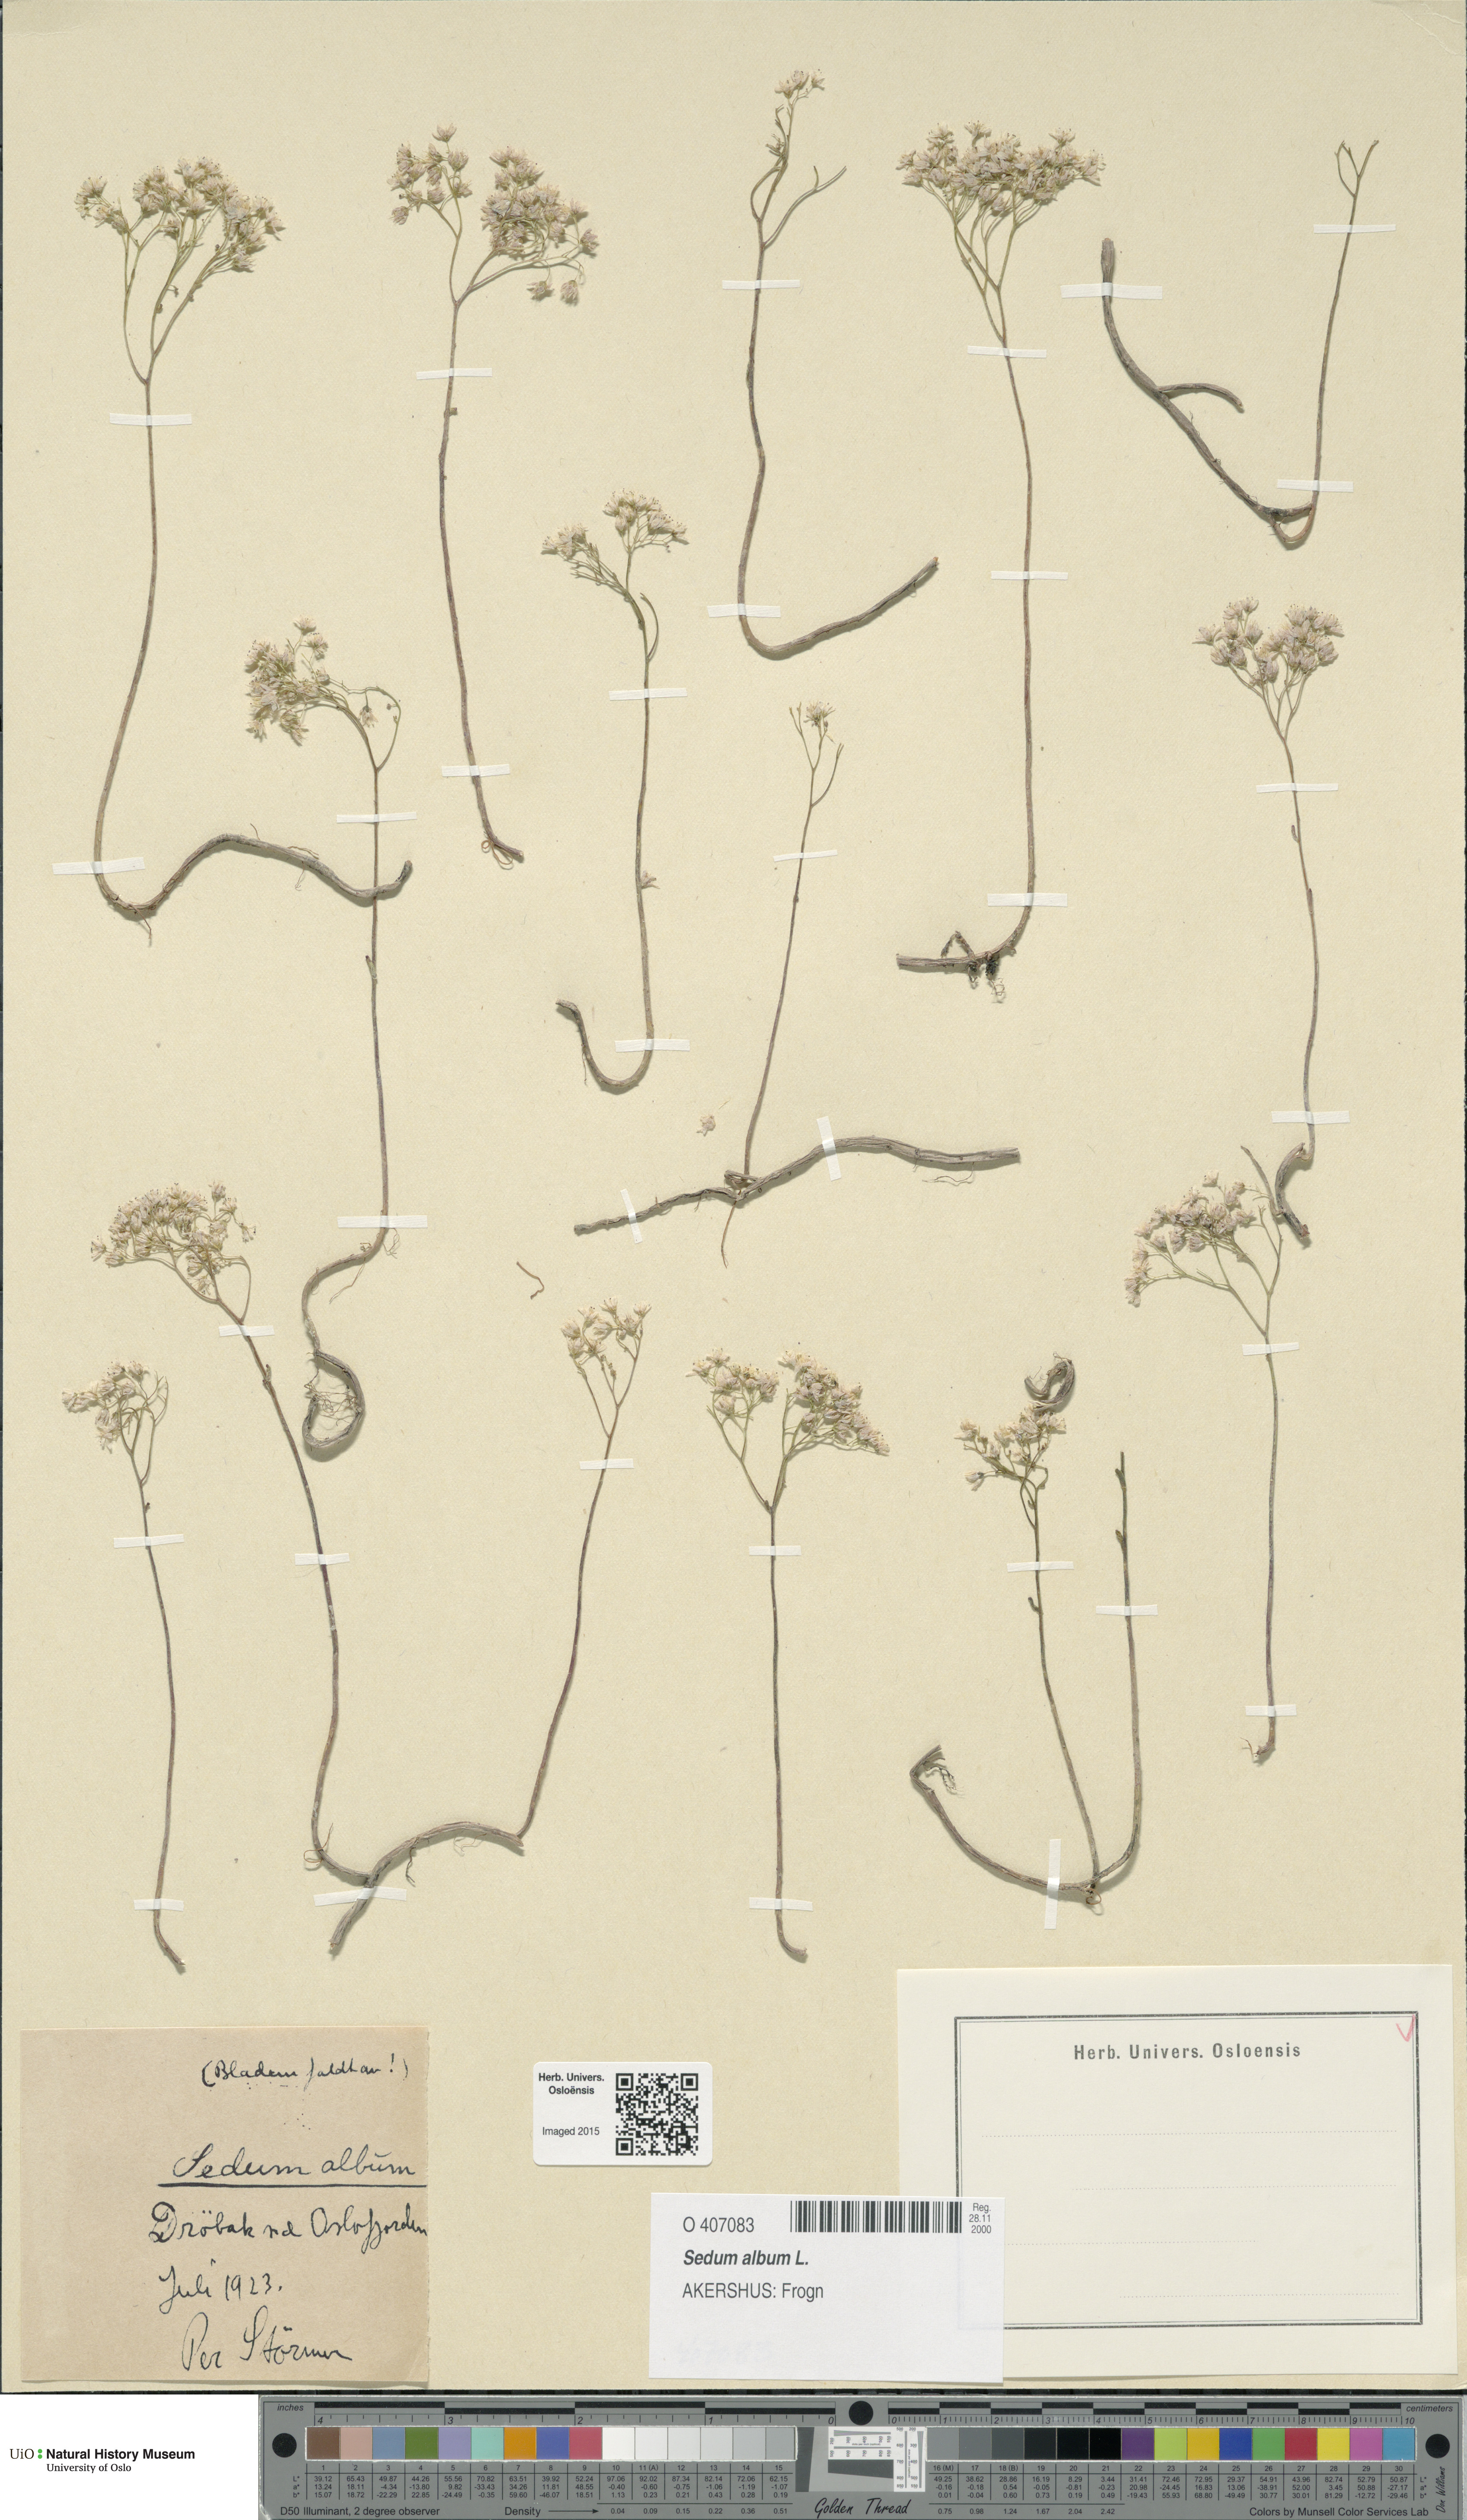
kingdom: Plantae
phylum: Tracheophyta
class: Magnoliopsida
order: Saxifragales
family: Crassulaceae
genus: Sedum
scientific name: Sedum album
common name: White stonecrop
